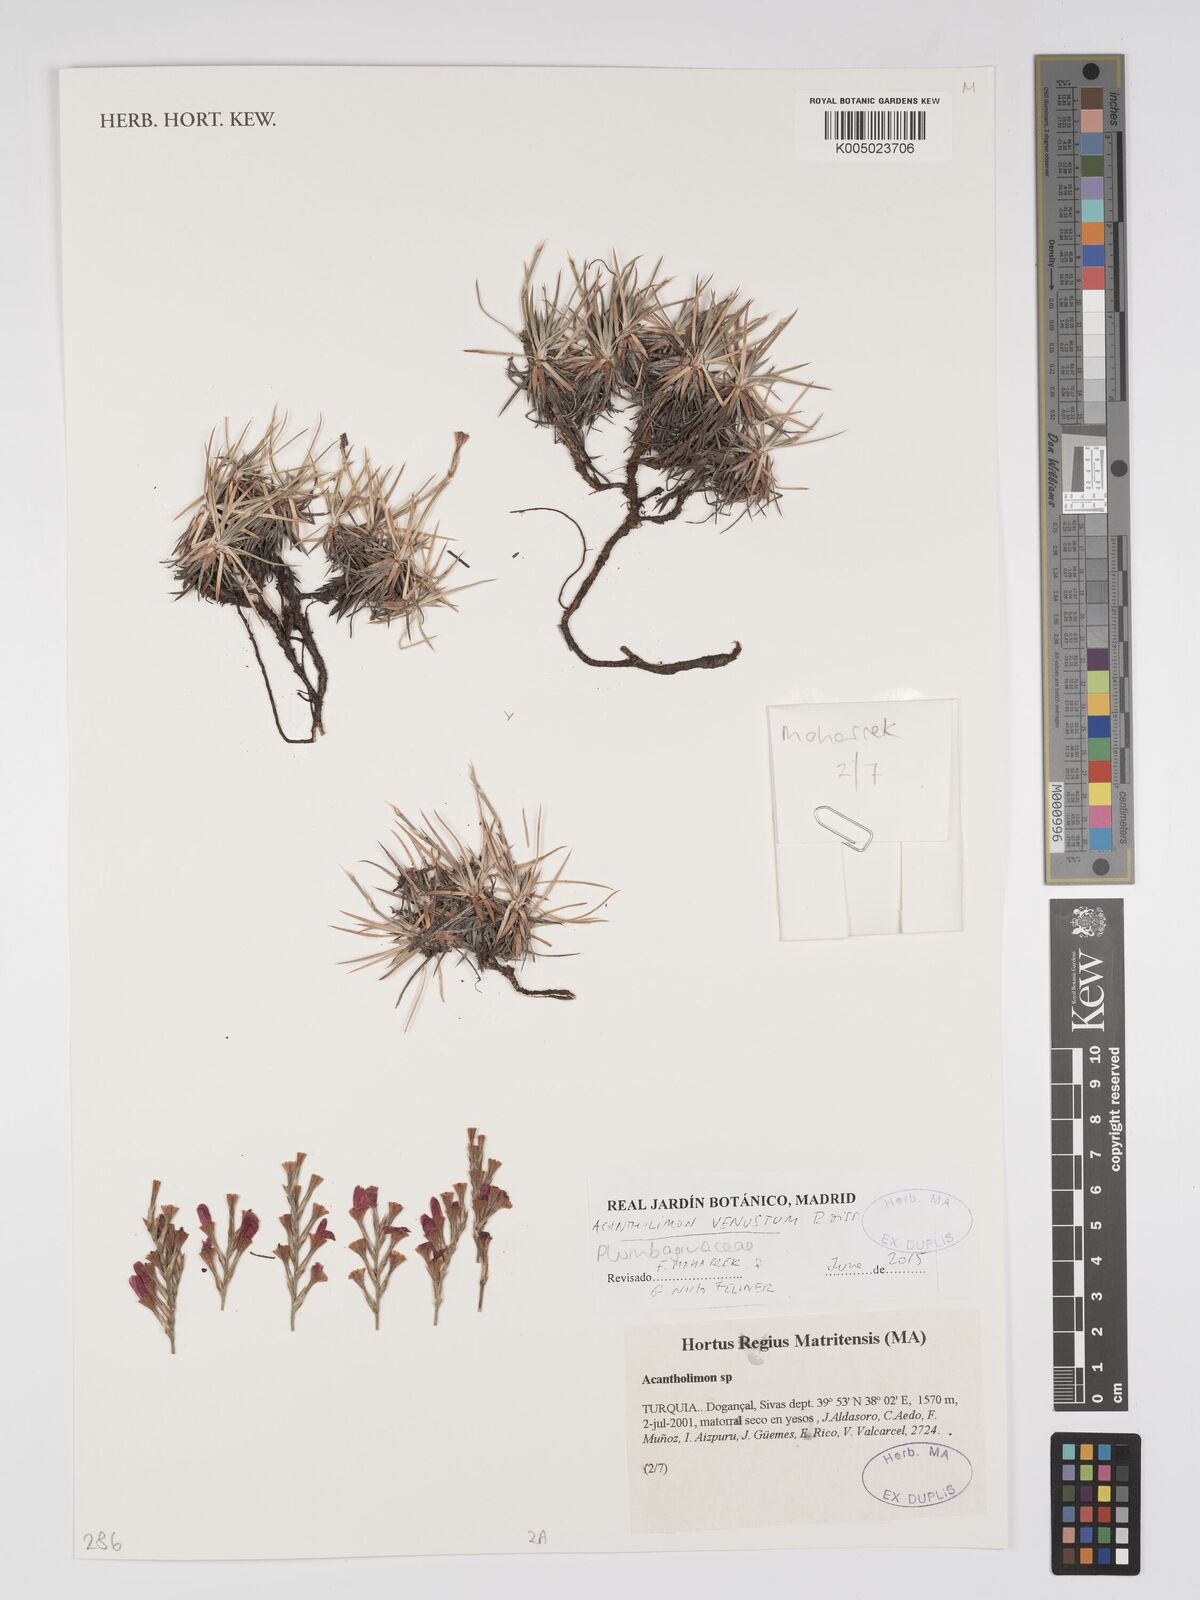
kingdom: Plantae
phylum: Tracheophyta
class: Magnoliopsida
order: Caryophyllales
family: Plumbaginaceae
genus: Acantholimon
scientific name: Acantholimon venustum
